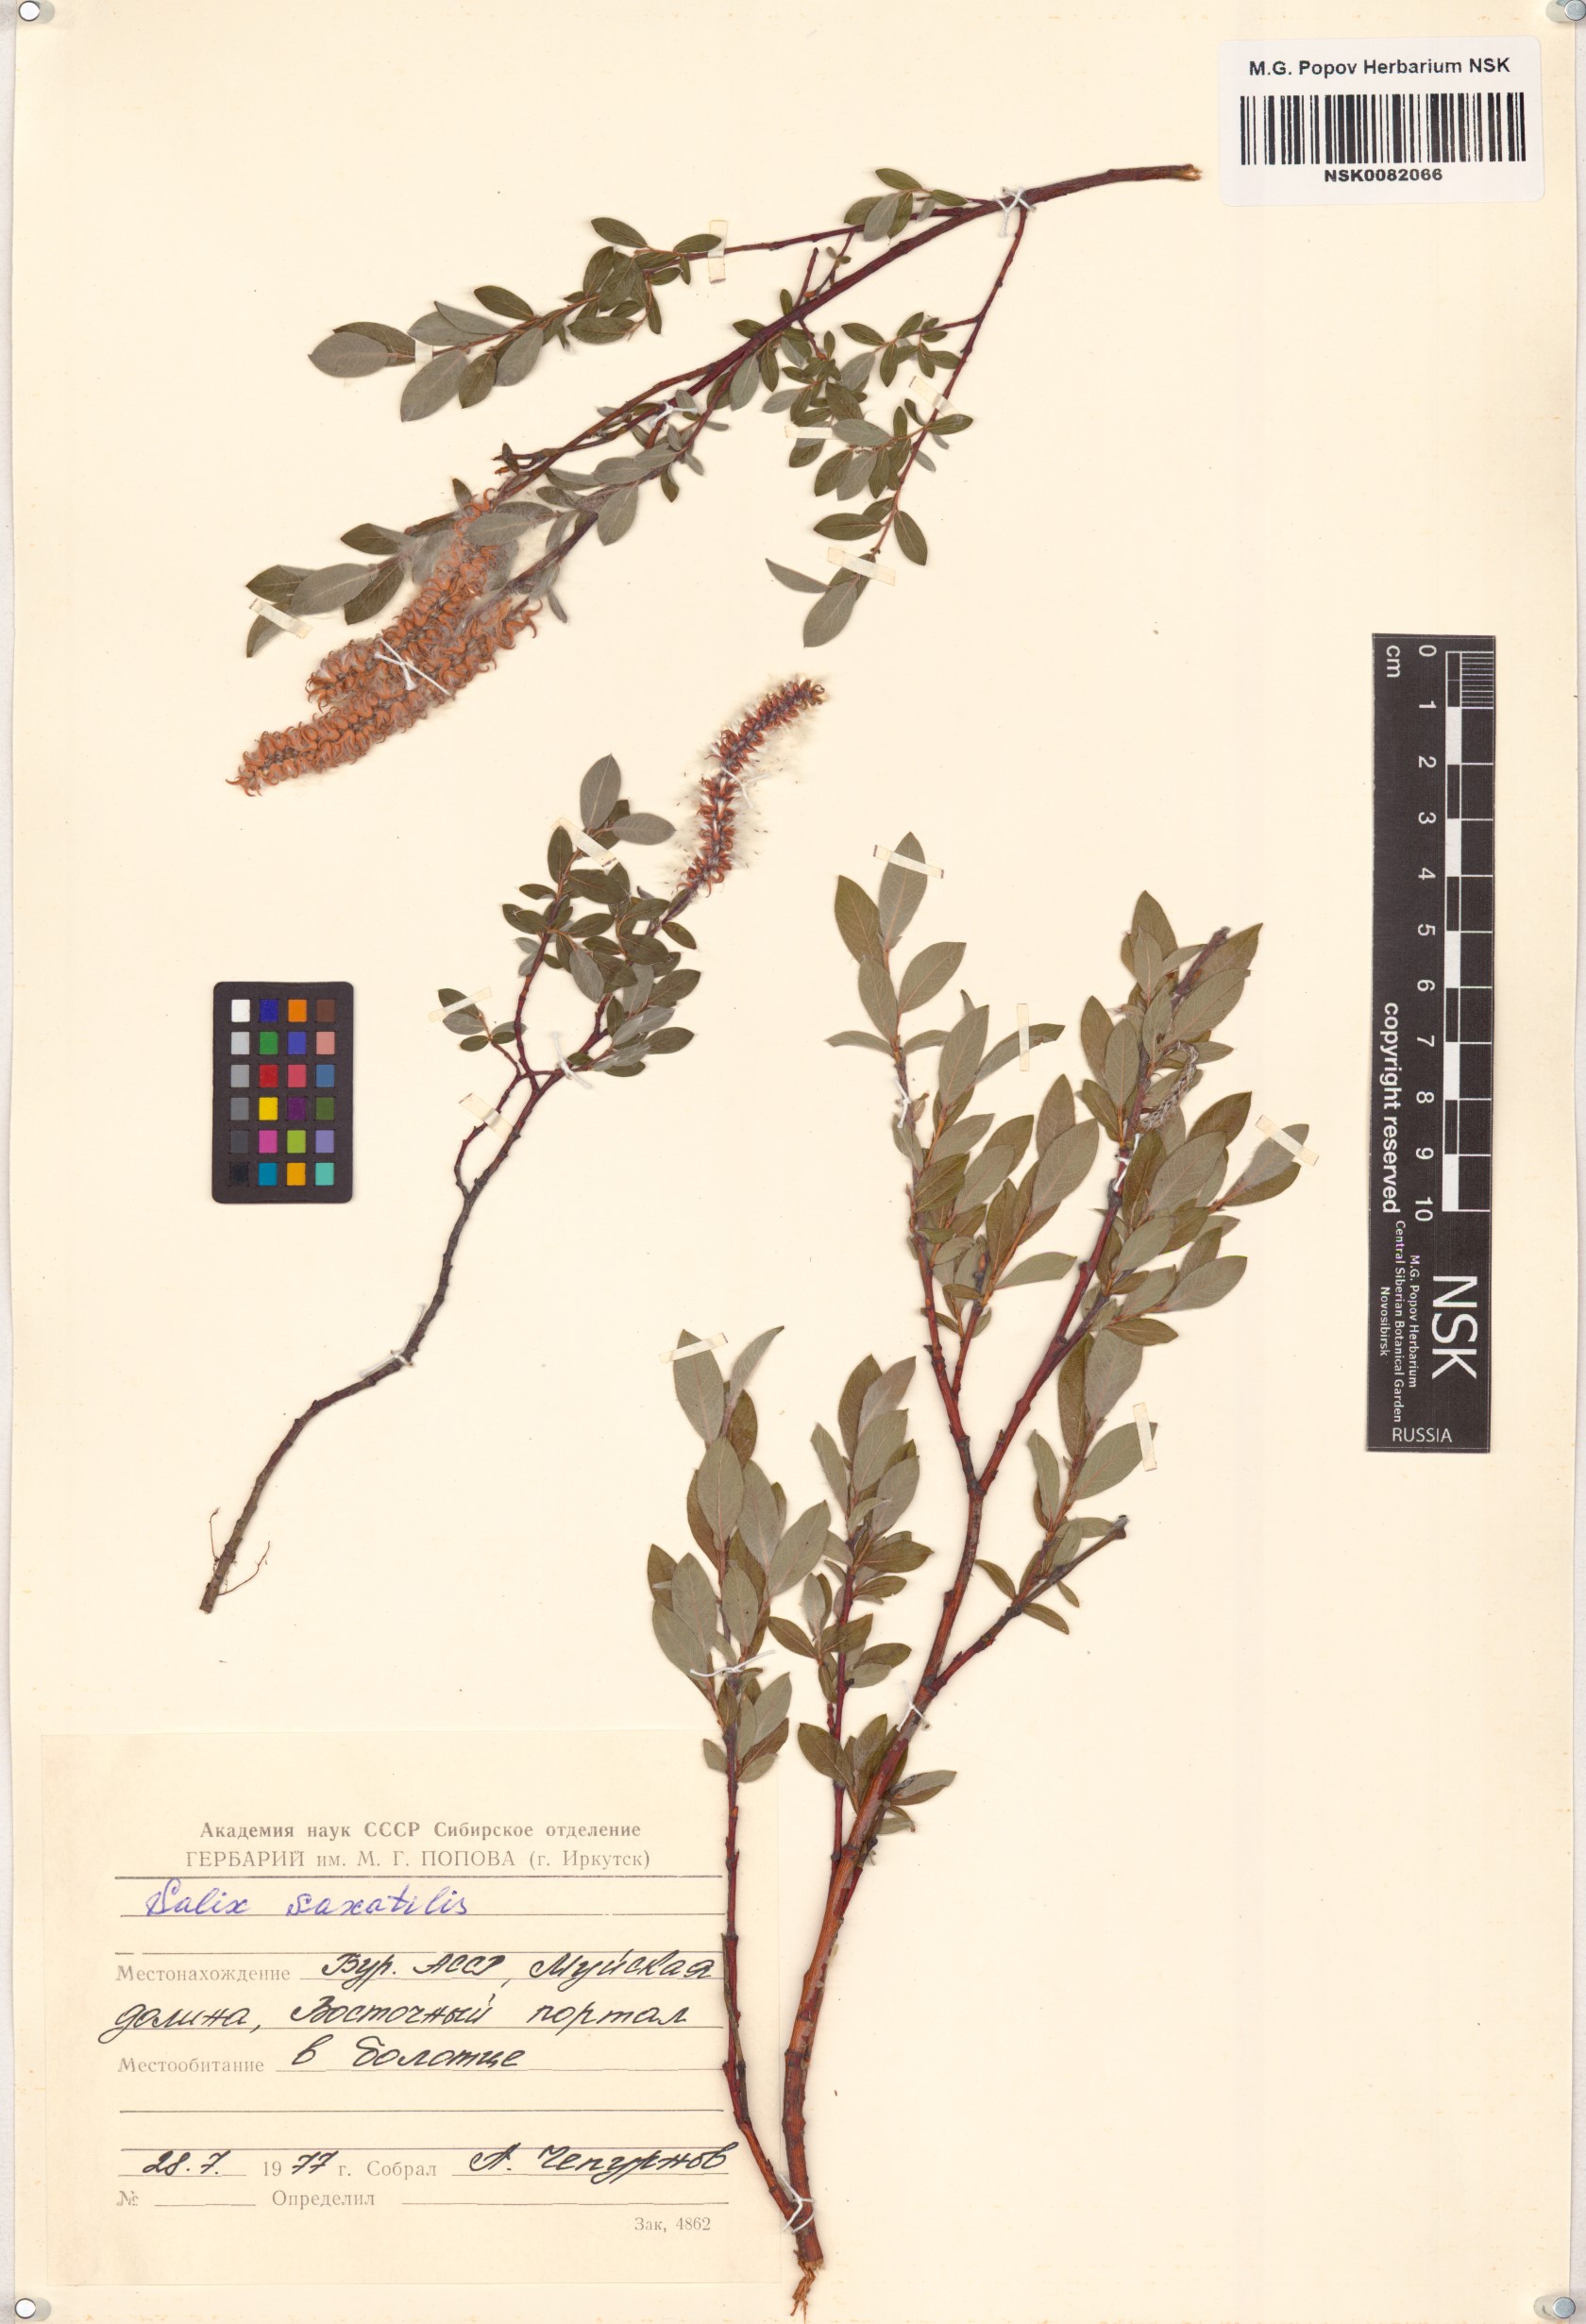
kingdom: Plantae
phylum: Tracheophyta
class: Magnoliopsida
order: Malpighiales
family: Salicaceae
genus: Salix
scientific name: Salix saxatilis
